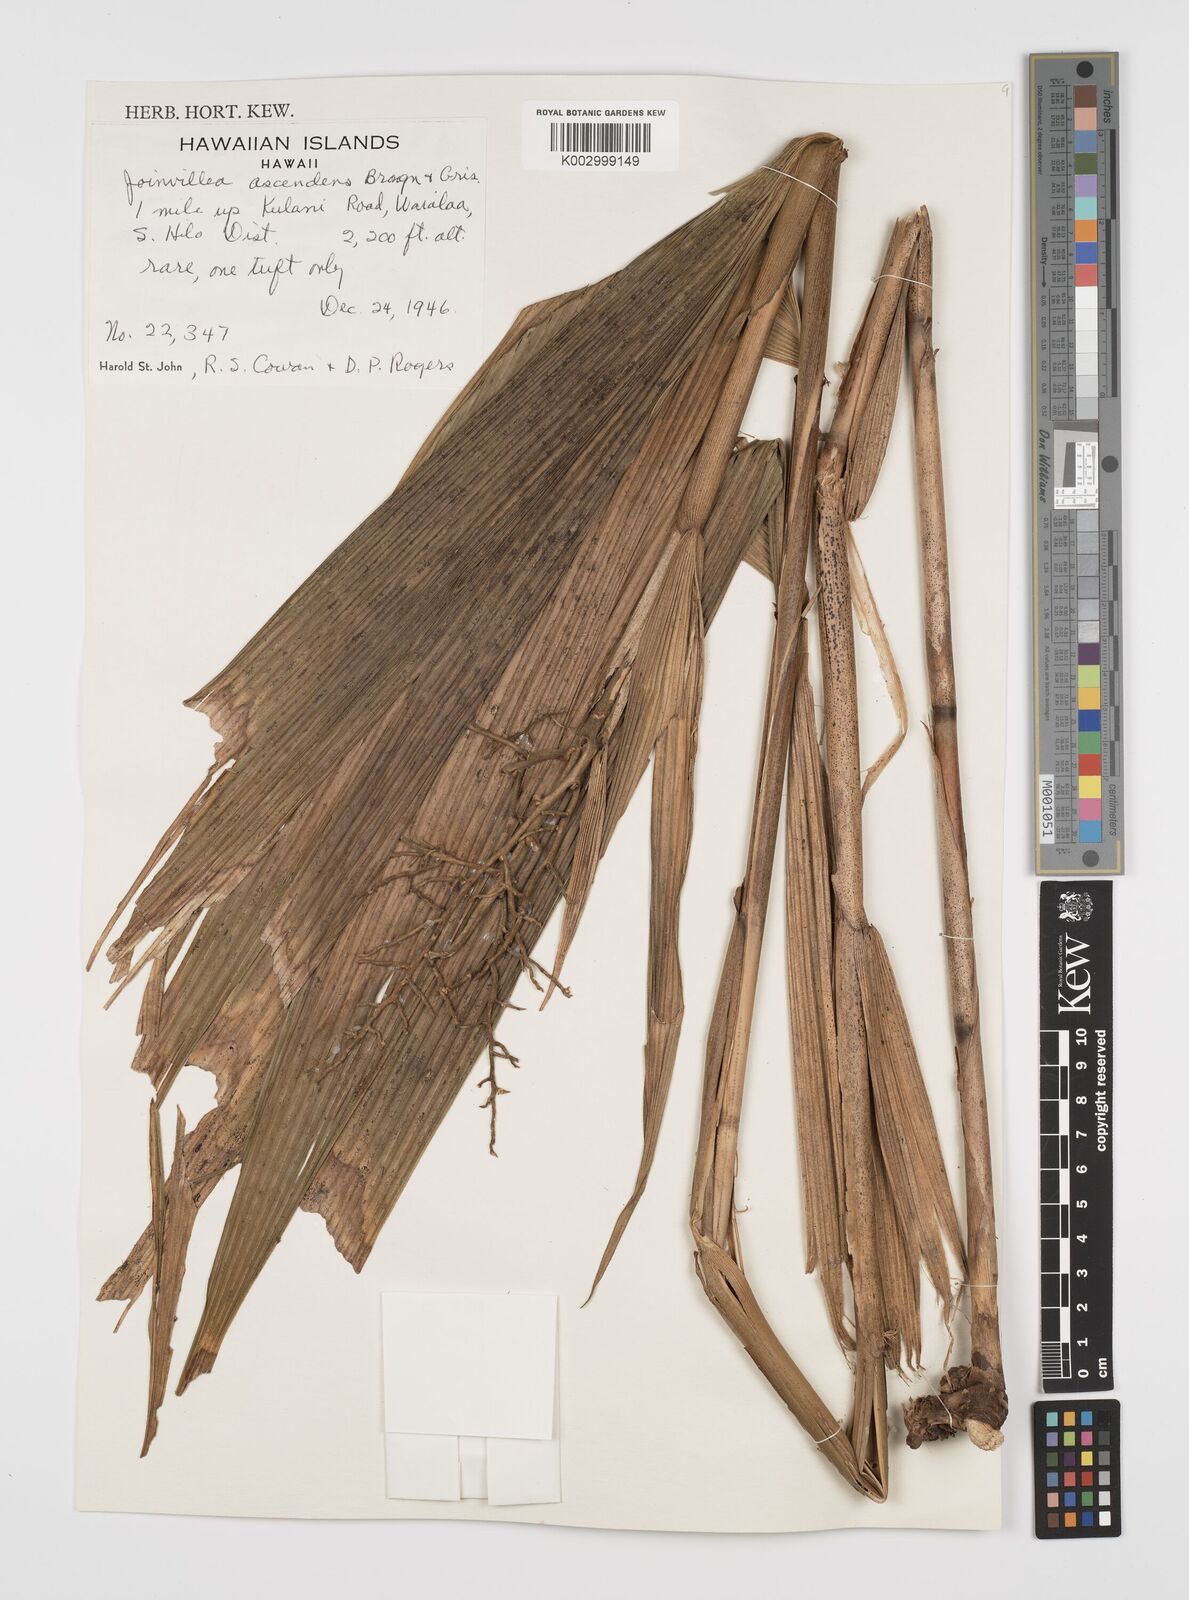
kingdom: Plantae
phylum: Tracheophyta
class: Liliopsida
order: Poales
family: Joinvilleaceae
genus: Joinvillea
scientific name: Joinvillea ascendens
